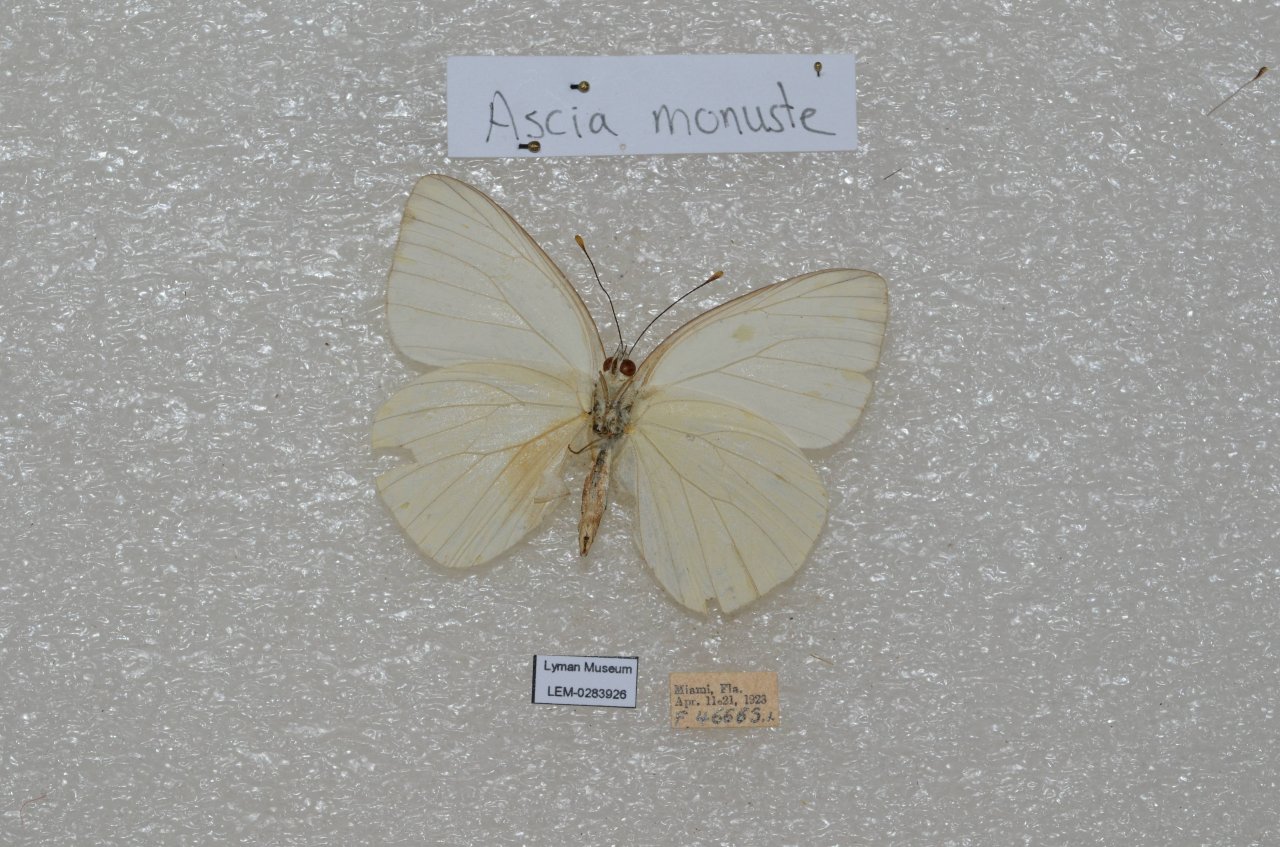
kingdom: Animalia
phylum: Arthropoda
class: Insecta
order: Lepidoptera
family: Pieridae
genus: Ascia
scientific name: Ascia monuste
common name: Great Southern White
